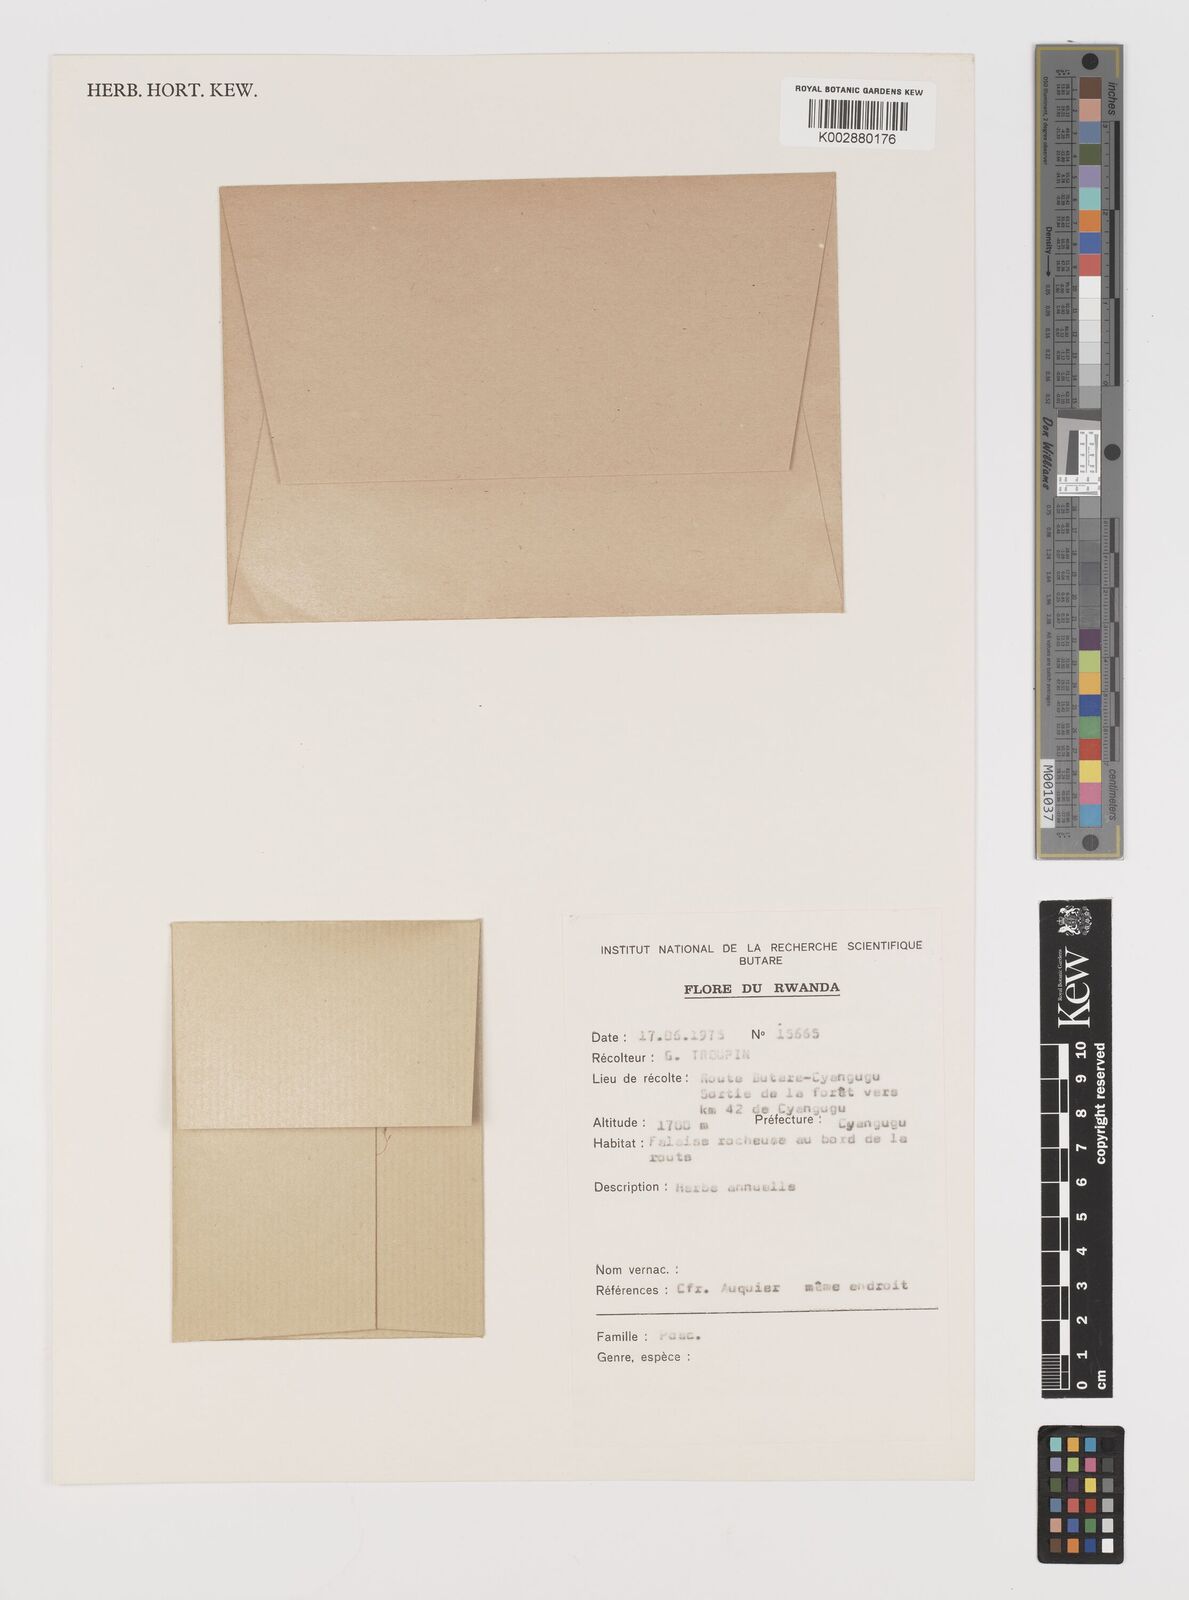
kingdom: Plantae
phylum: Tracheophyta
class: Liliopsida
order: Poales
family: Poaceae
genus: Hubbardochloa
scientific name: Hubbardochloa gracilis
